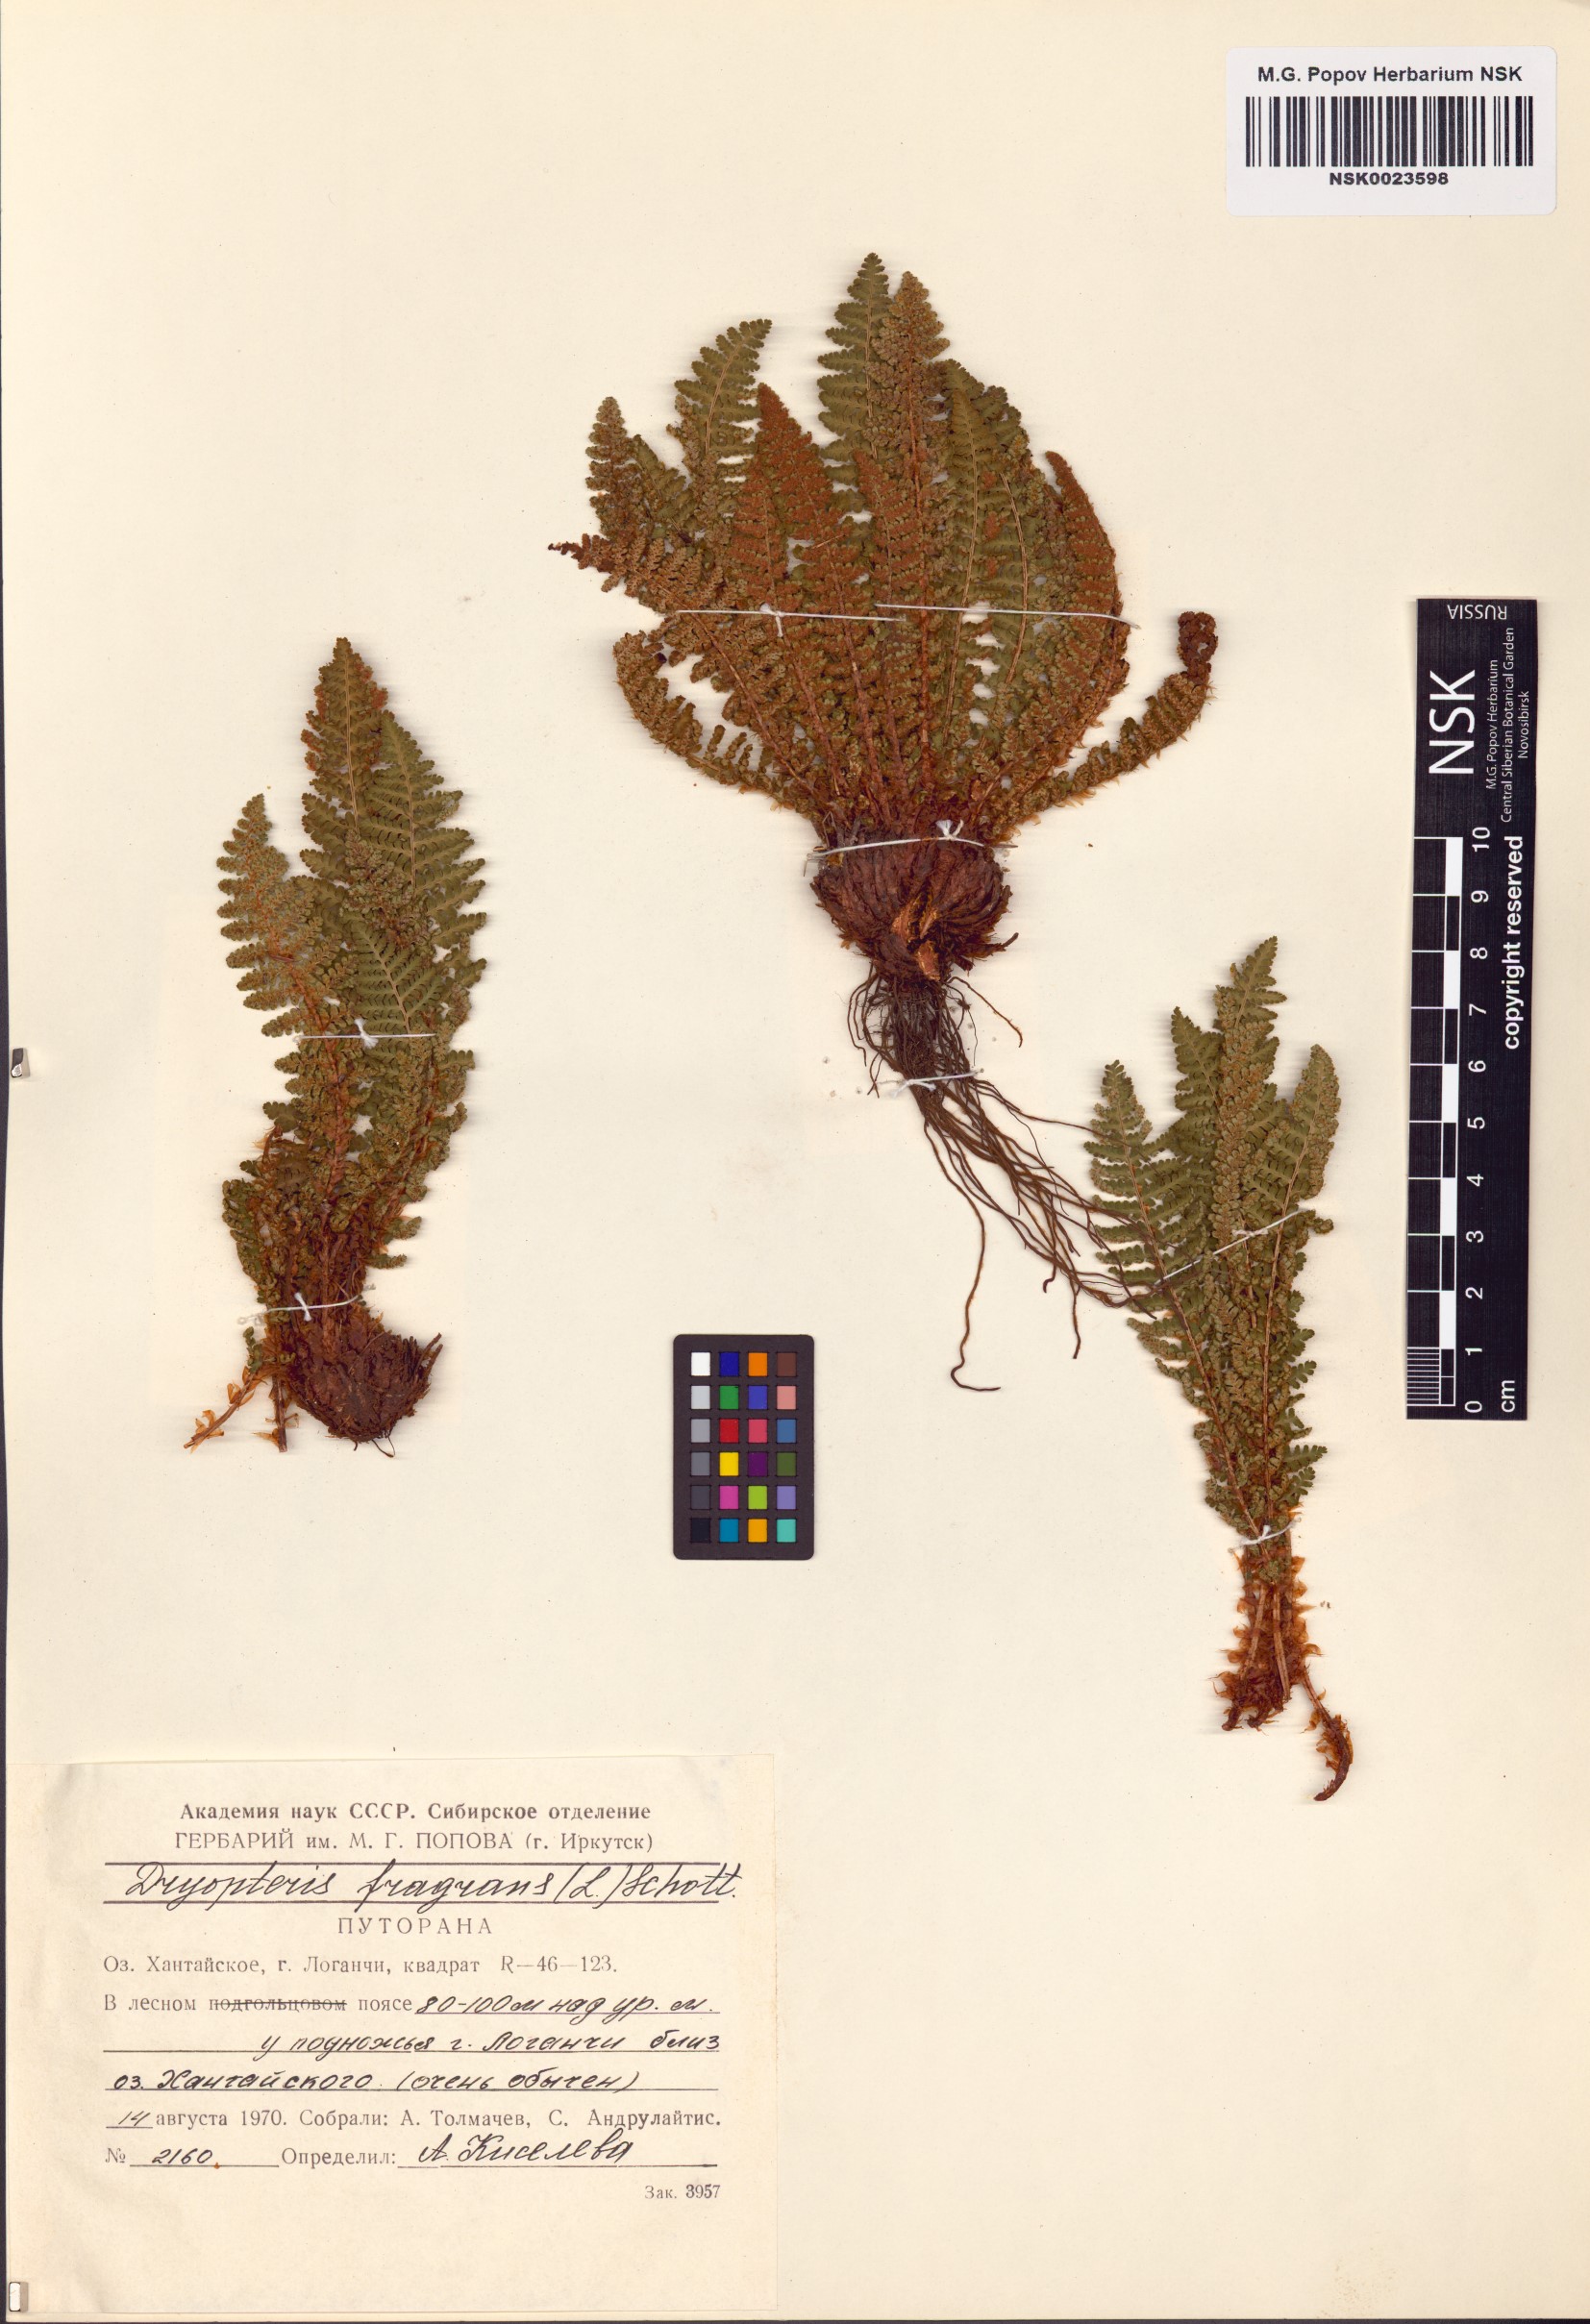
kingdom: Plantae
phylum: Tracheophyta
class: Polypodiopsida
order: Polypodiales
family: Dryopteridaceae
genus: Dryopteris
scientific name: Dryopteris fragrans
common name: Fragrant wood fern
